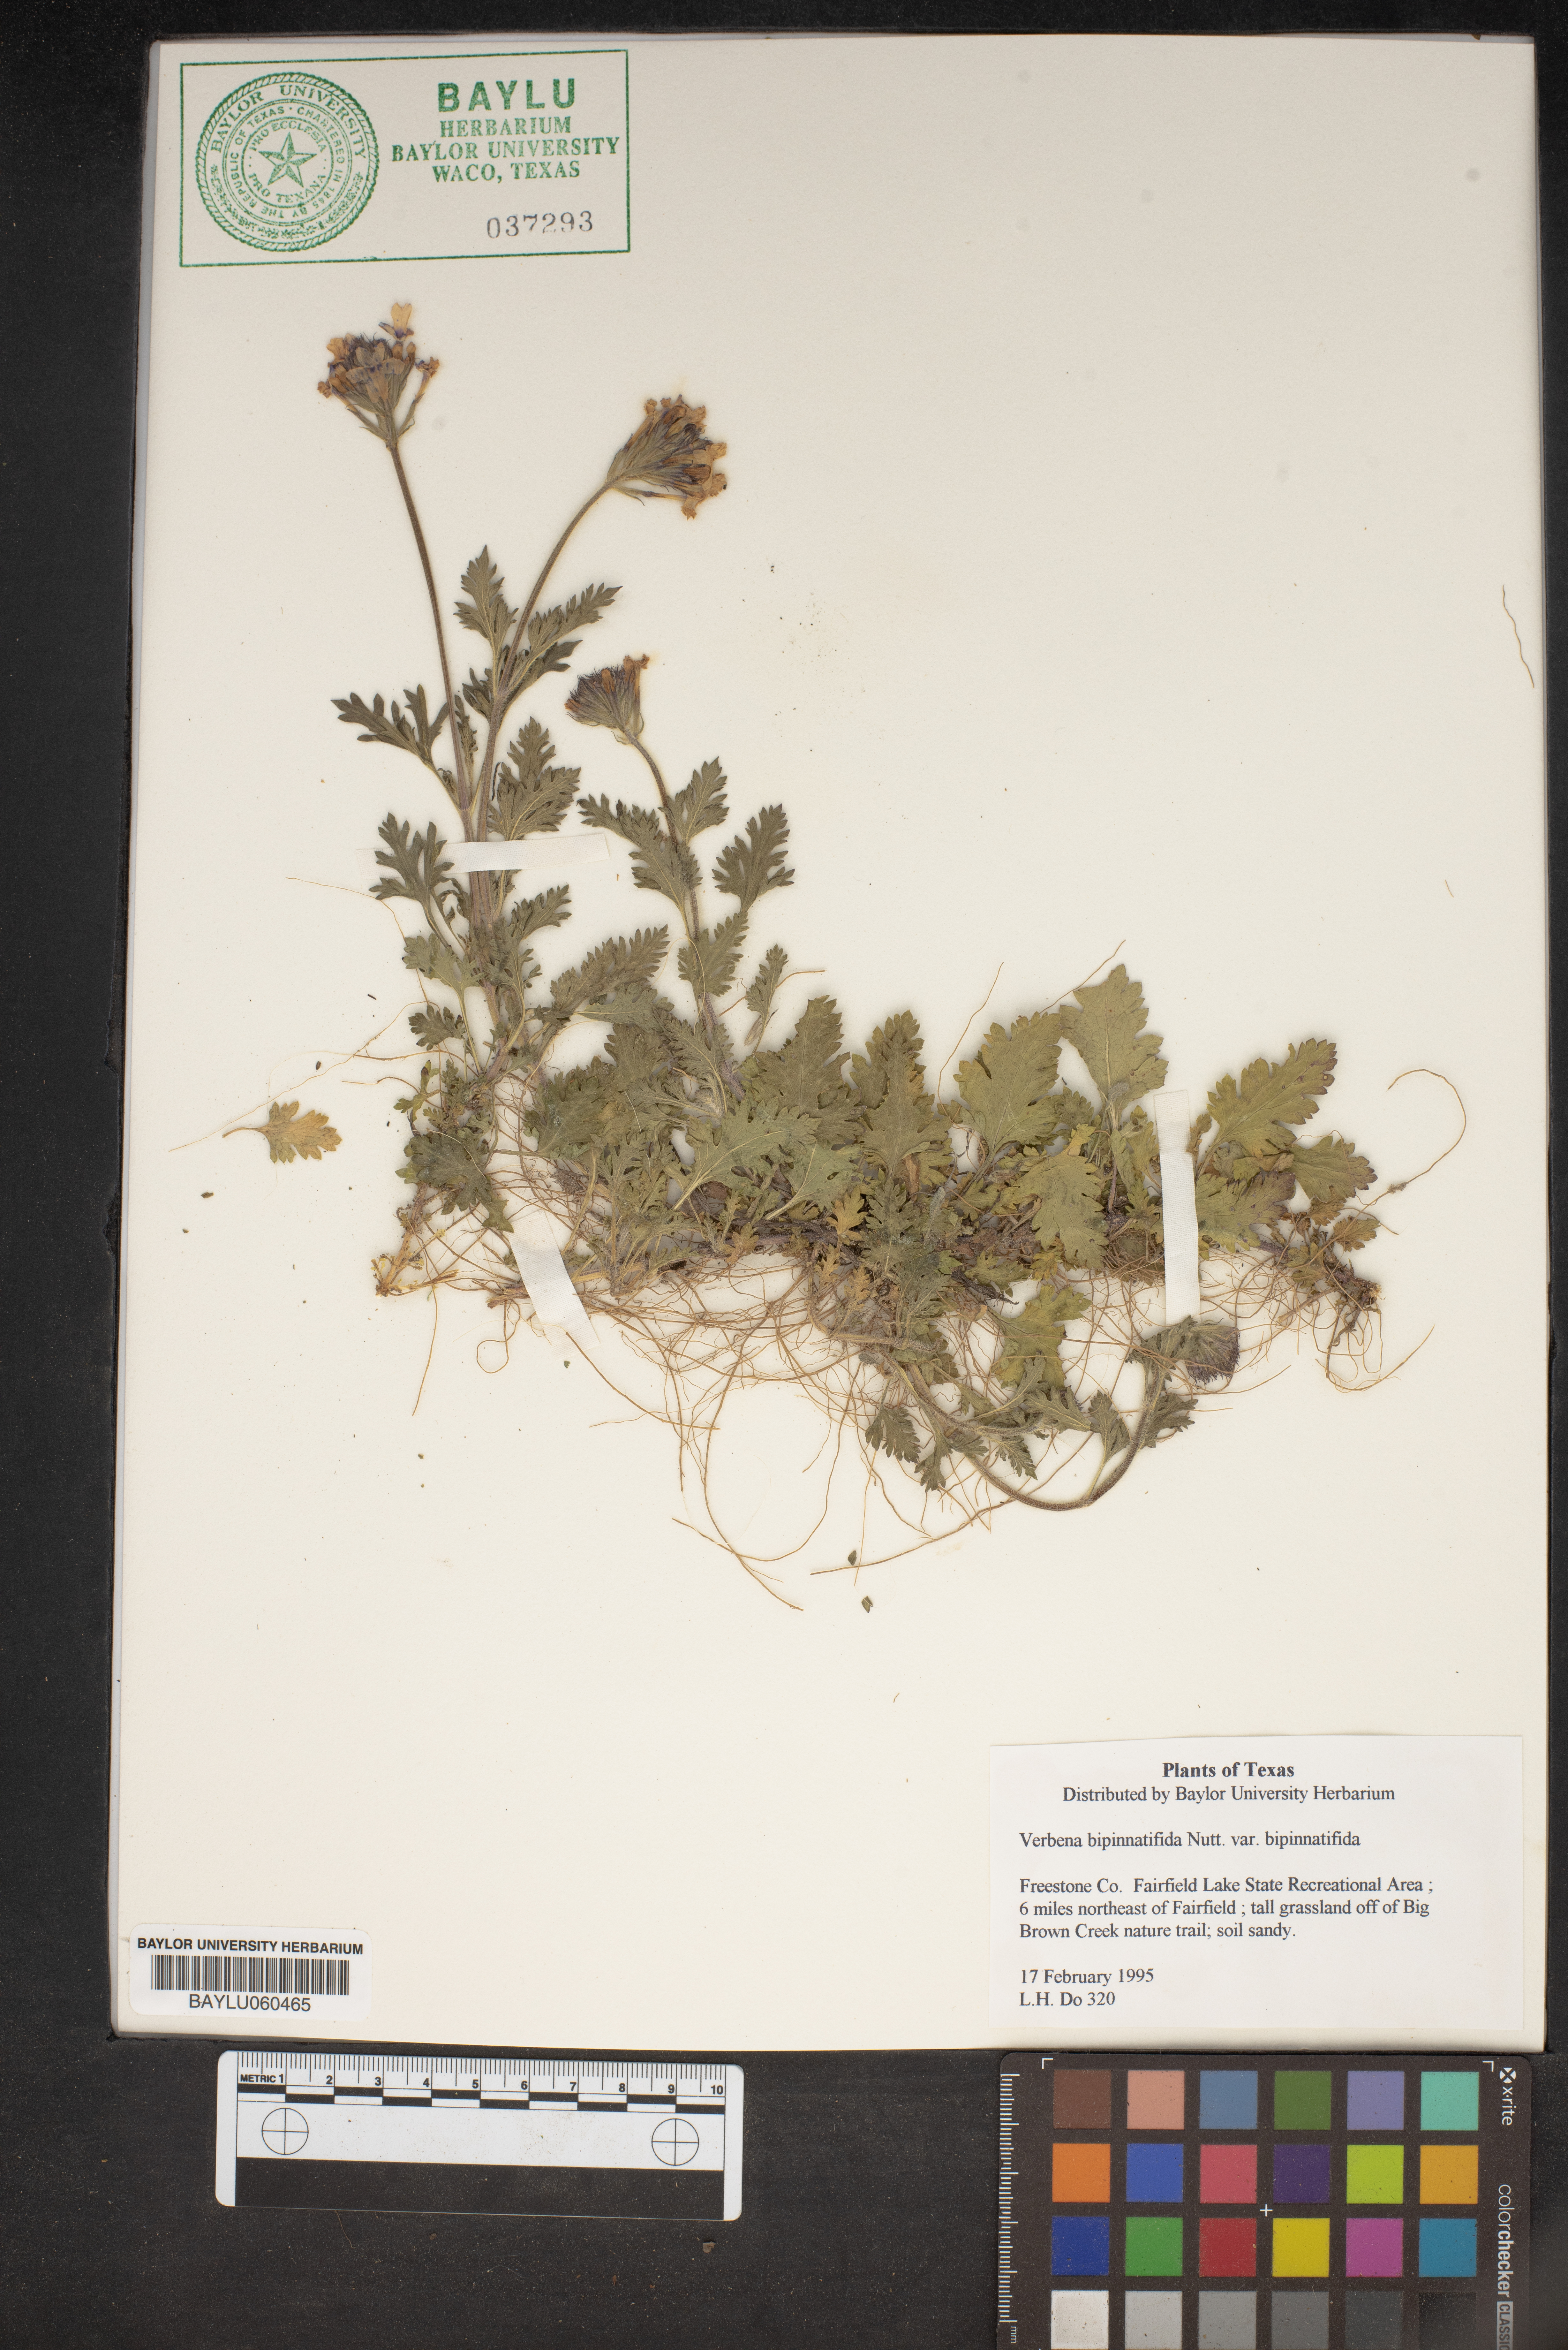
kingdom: Plantae
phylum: Tracheophyta
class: Magnoliopsida
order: Lamiales
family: Verbenaceae
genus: Verbena
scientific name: Verbena bipinnatifida
